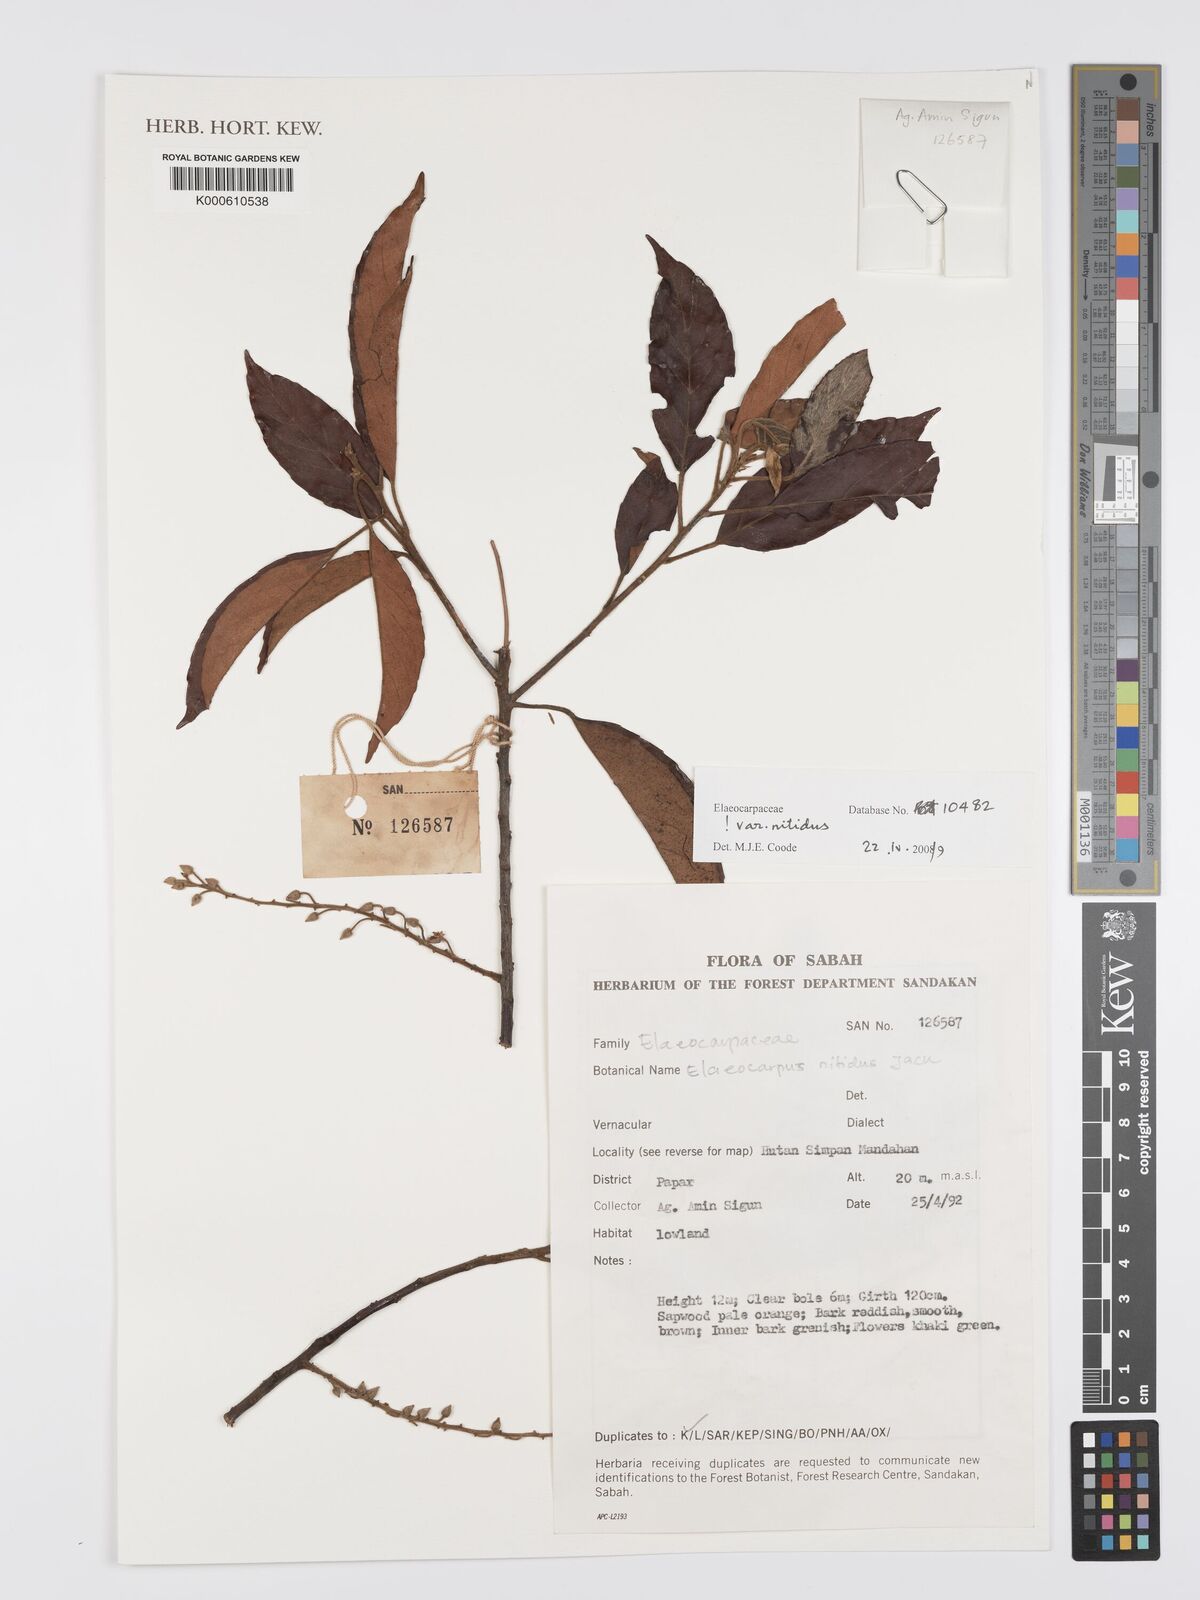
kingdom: Plantae
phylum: Tracheophyta
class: Magnoliopsida
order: Oxalidales
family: Elaeocarpaceae
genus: Elaeocarpus
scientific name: Elaeocarpus nitidus
